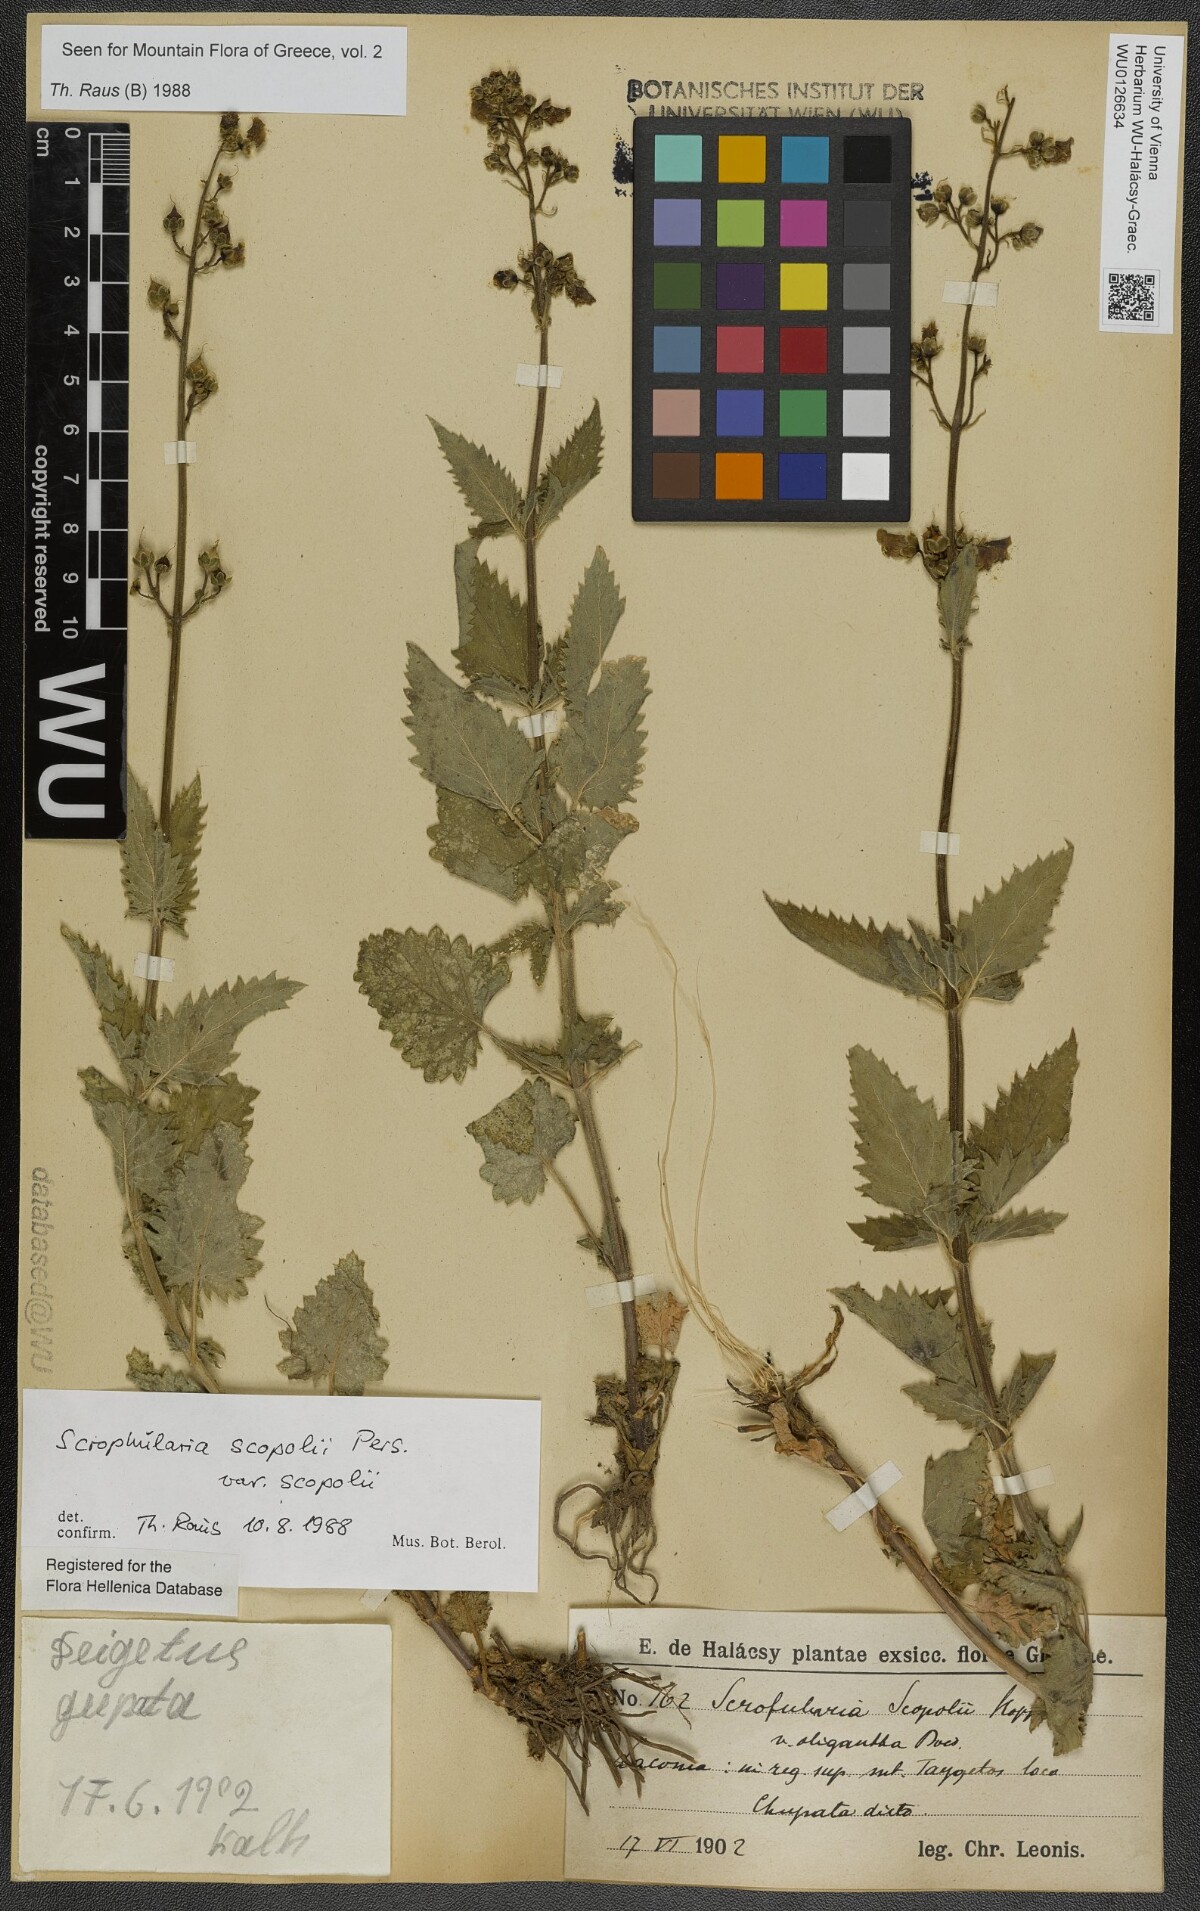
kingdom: Plantae
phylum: Tracheophyta
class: Magnoliopsida
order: Lamiales
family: Scrophulariaceae
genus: Scrophularia
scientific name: Scrophularia scopolii
